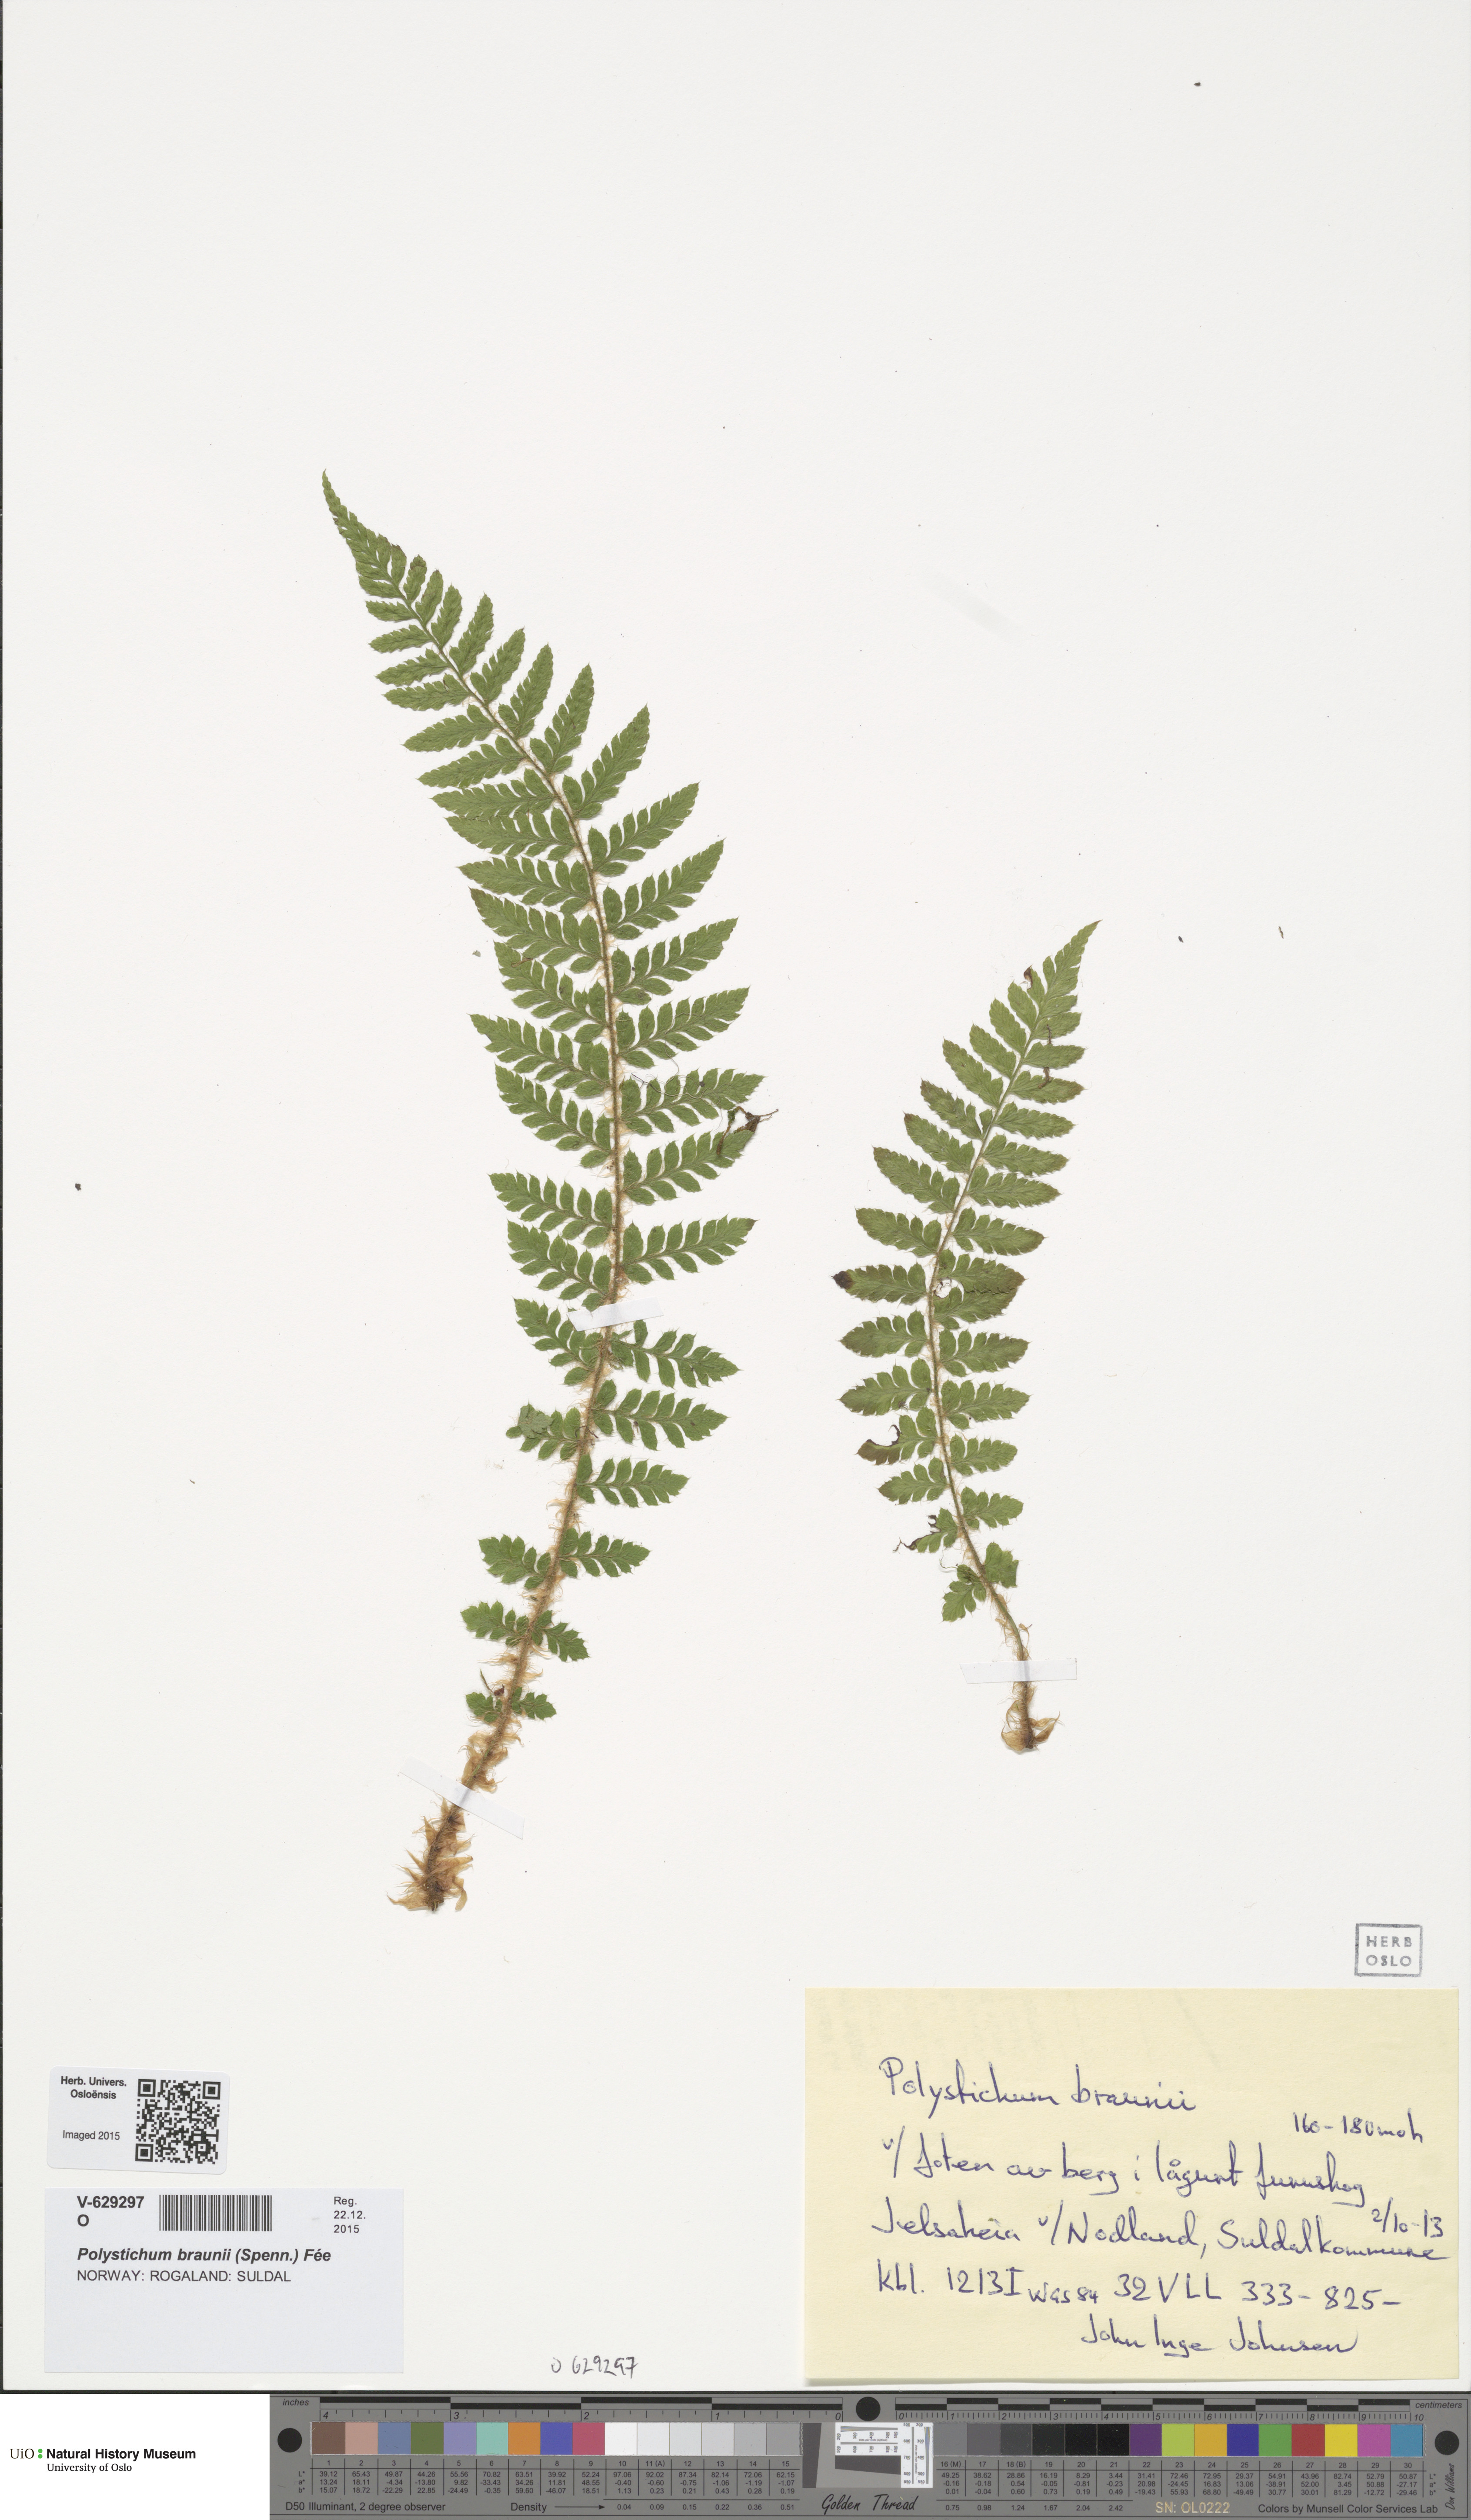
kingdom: Plantae
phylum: Tracheophyta
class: Polypodiopsida
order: Polypodiales
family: Dryopteridaceae
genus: Polystichum
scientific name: Polystichum braunii
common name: Braun's holly fern
